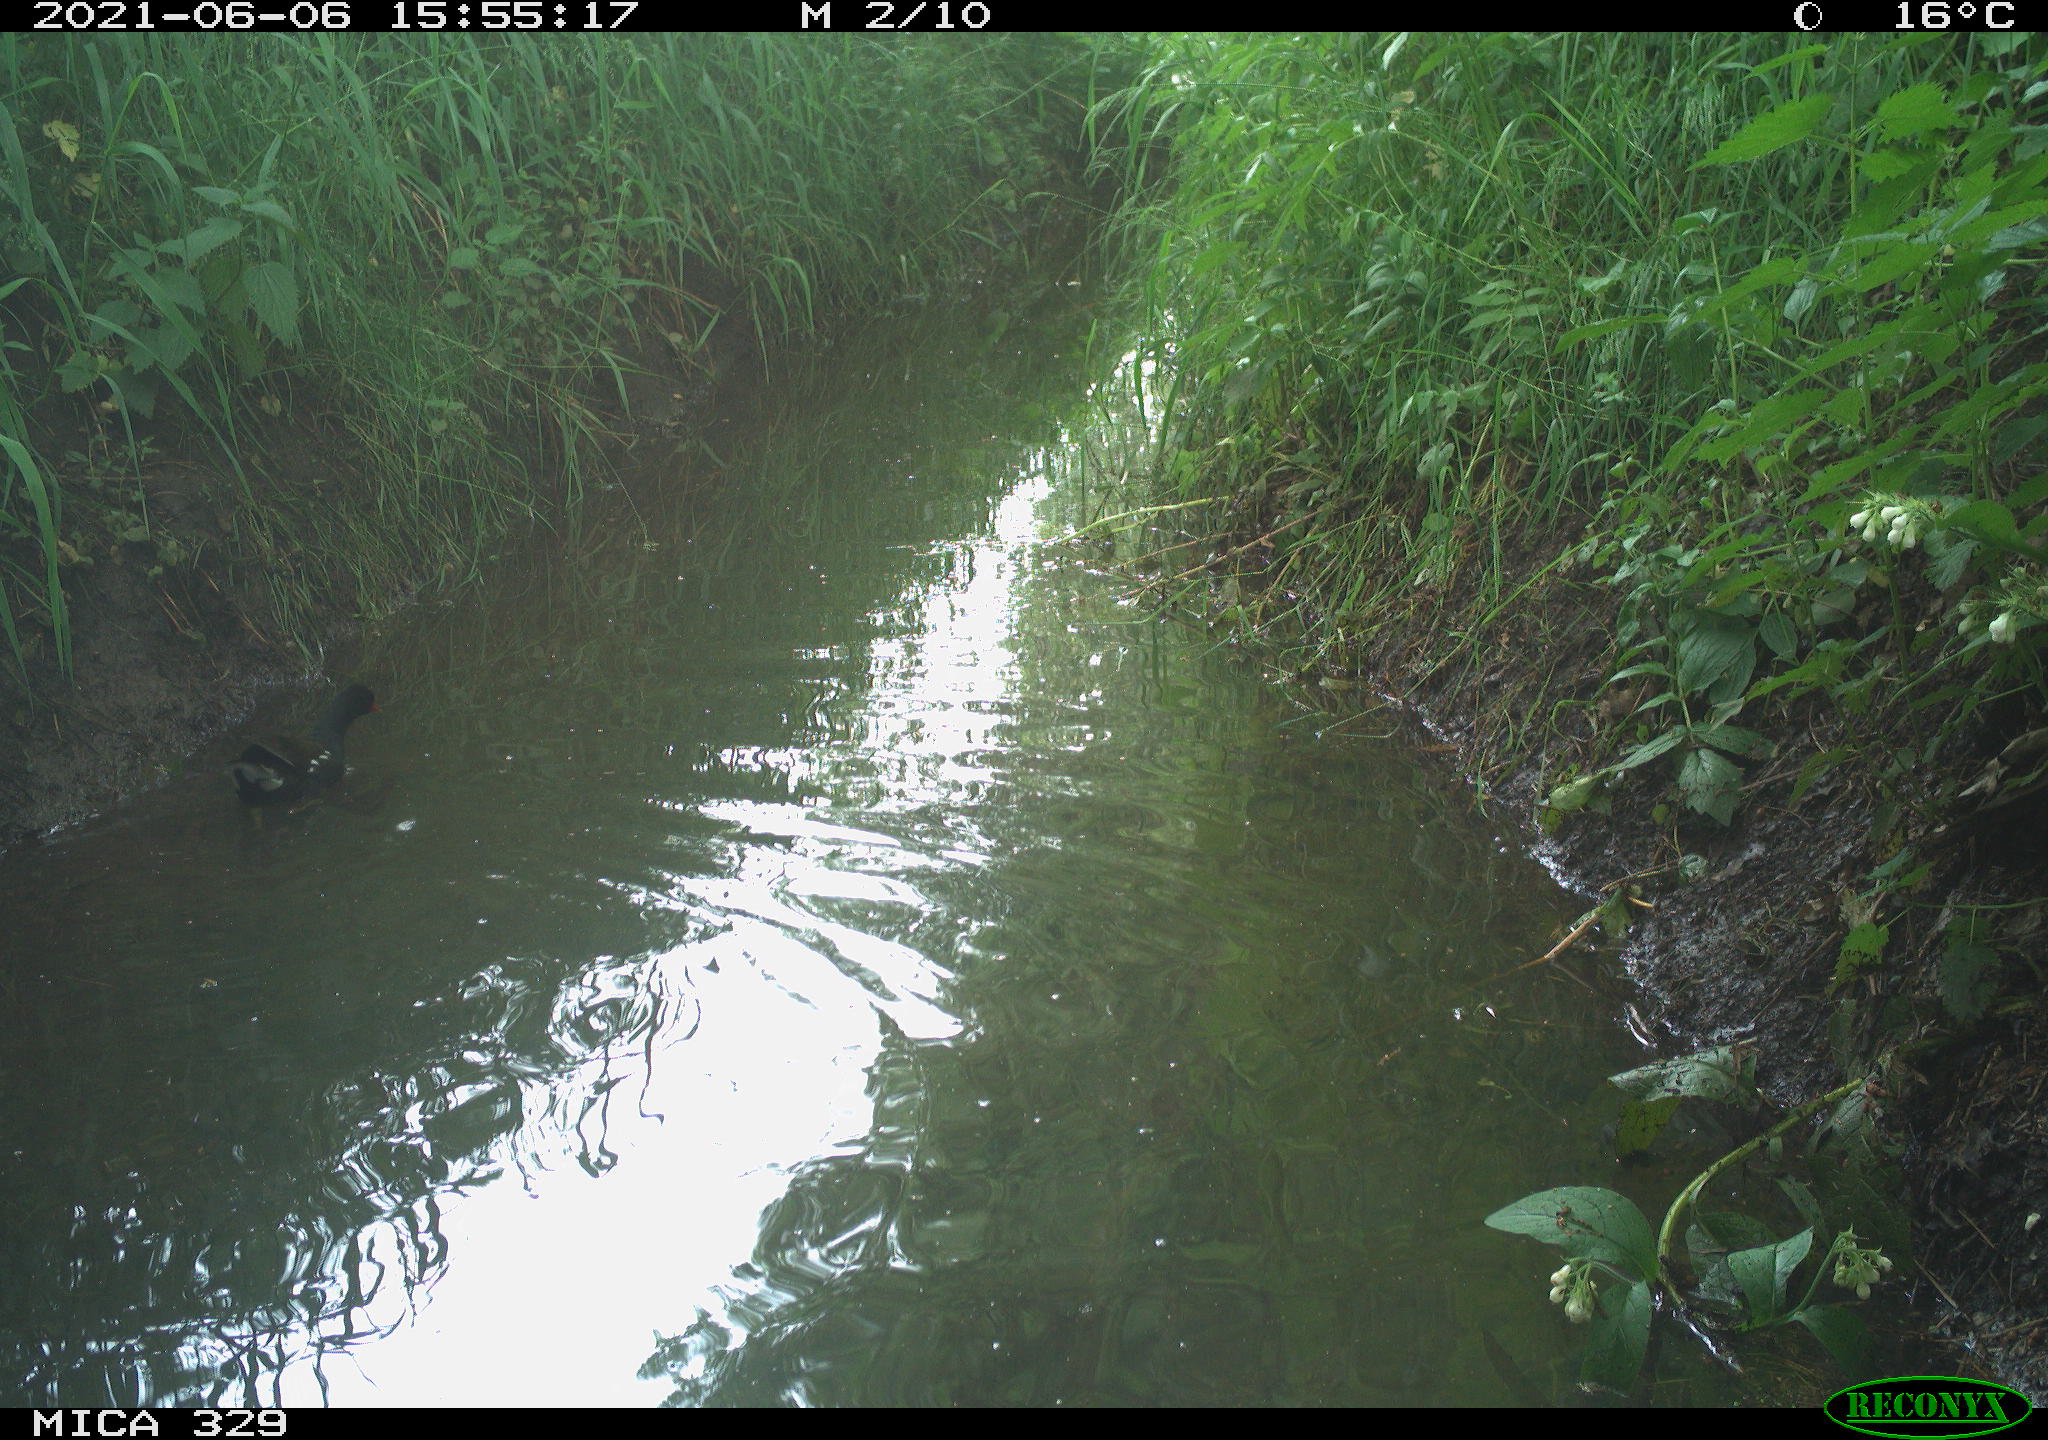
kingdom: Animalia
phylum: Chordata
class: Aves
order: Gruiformes
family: Rallidae
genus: Gallinula
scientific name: Gallinula chloropus
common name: Common moorhen
